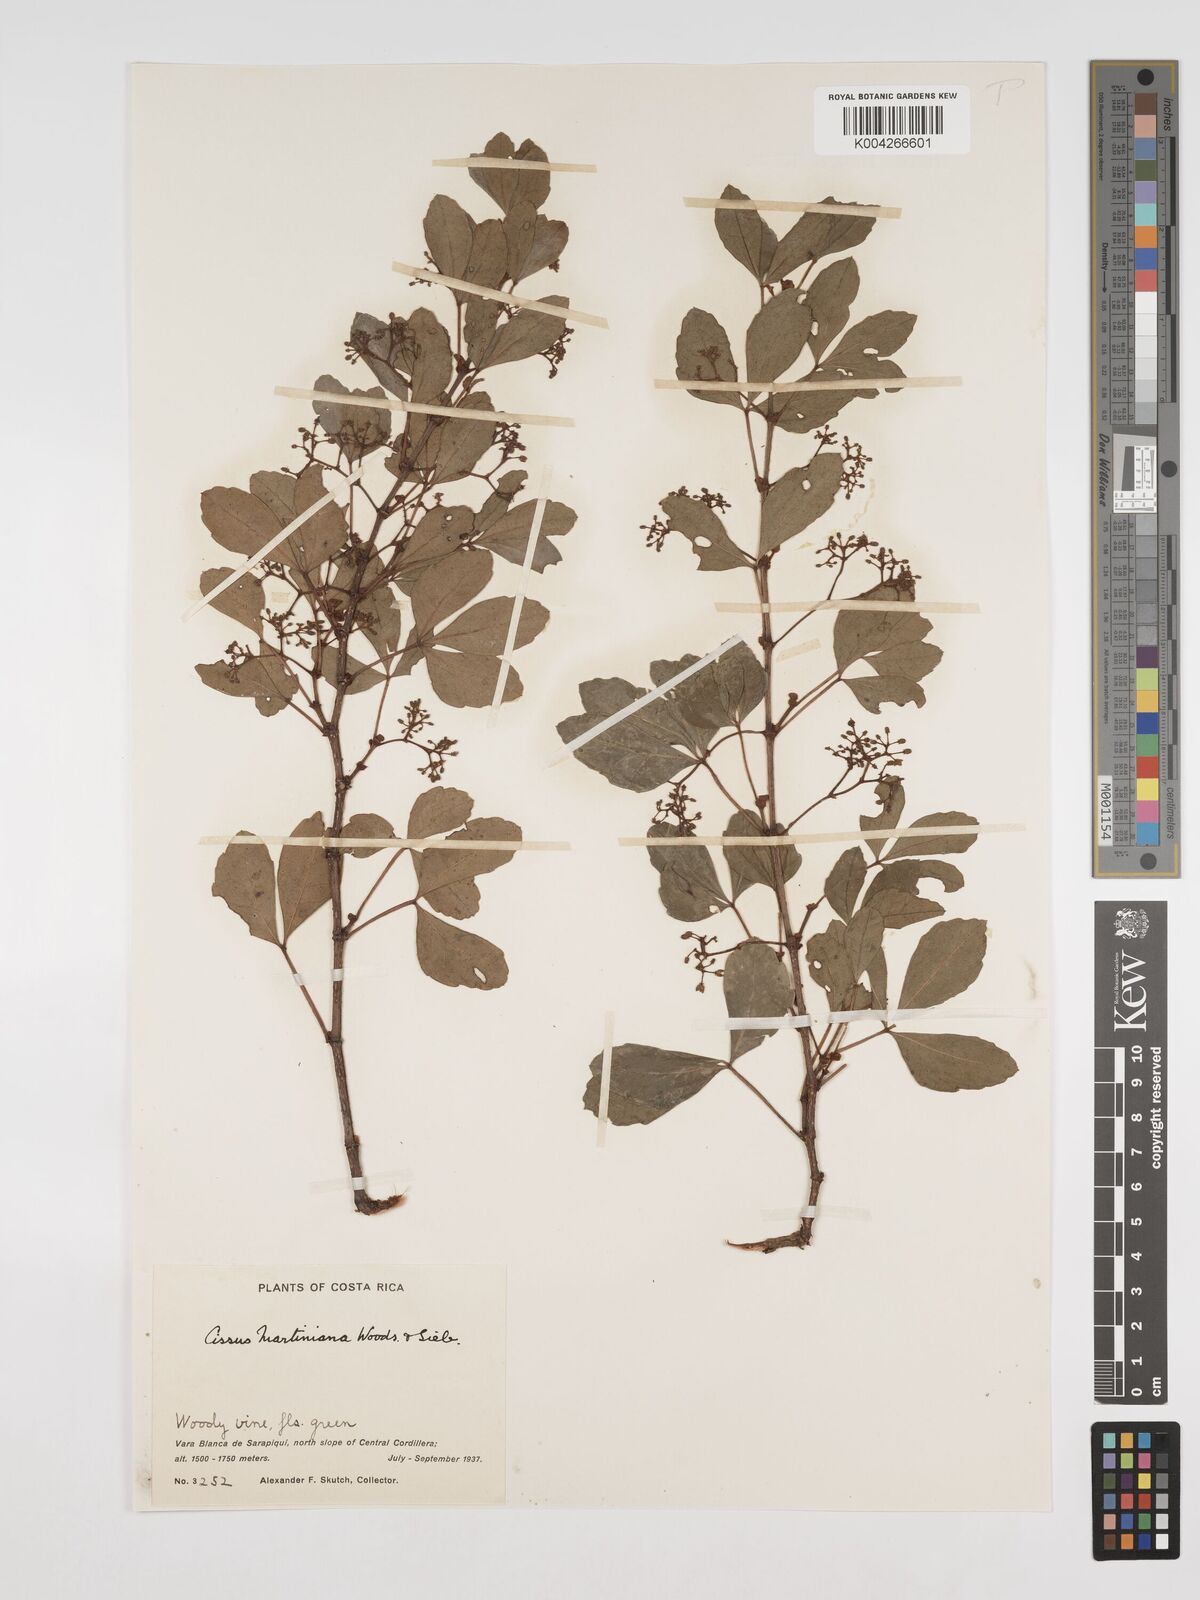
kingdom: Plantae
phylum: Tracheophyta
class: Magnoliopsida
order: Vitales
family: Vitaceae
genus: Cissus
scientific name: Cissus trianae
